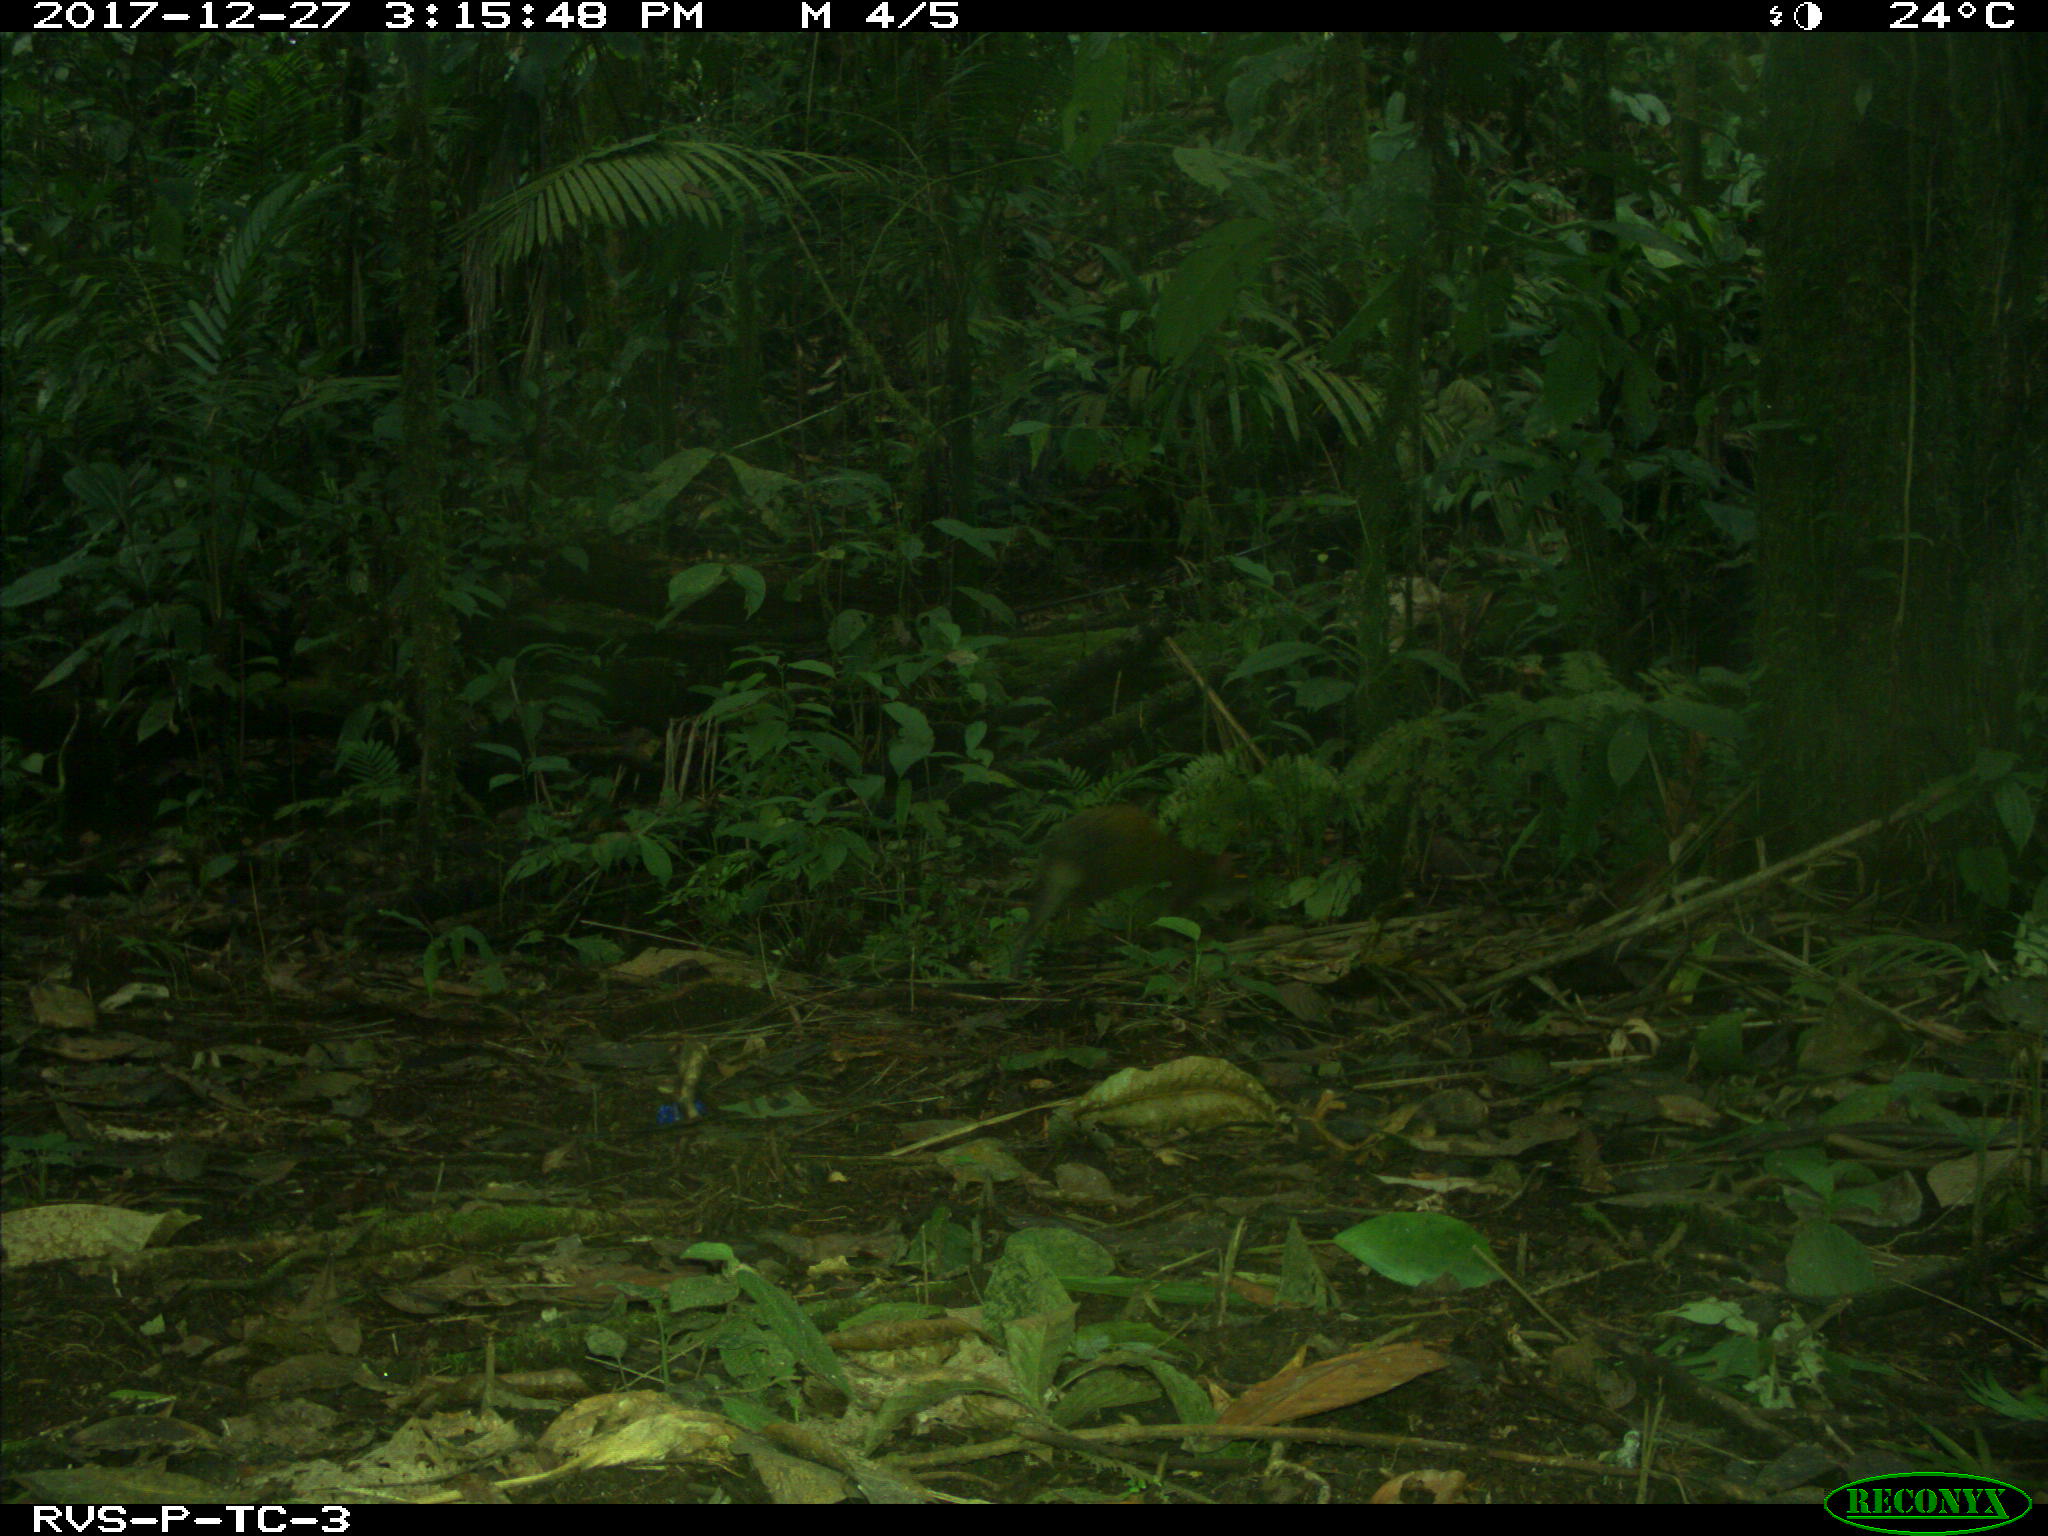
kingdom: Animalia
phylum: Chordata
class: Mammalia
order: Rodentia
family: Dasyproctidae
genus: Dasyprocta
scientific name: Dasyprocta punctata
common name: Central american agouti
